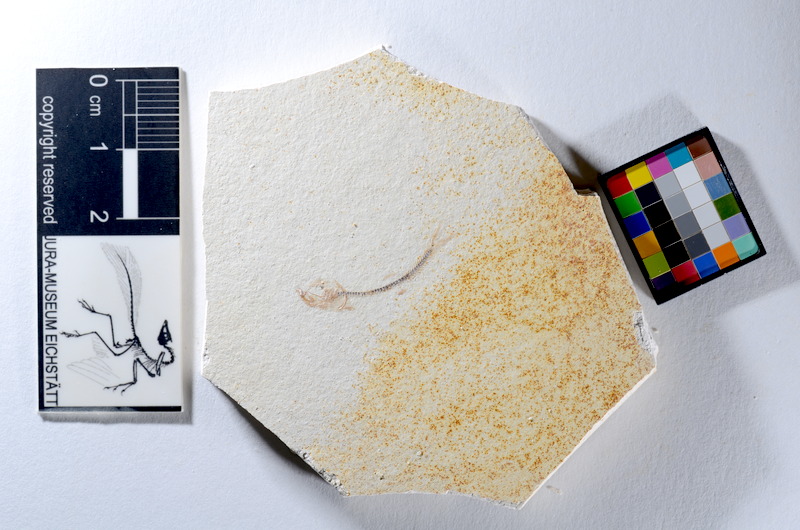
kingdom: Animalia
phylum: Chordata
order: Salmoniformes
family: Orthogonikleithridae
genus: Orthogonikleithrus
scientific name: Orthogonikleithrus hoelli
